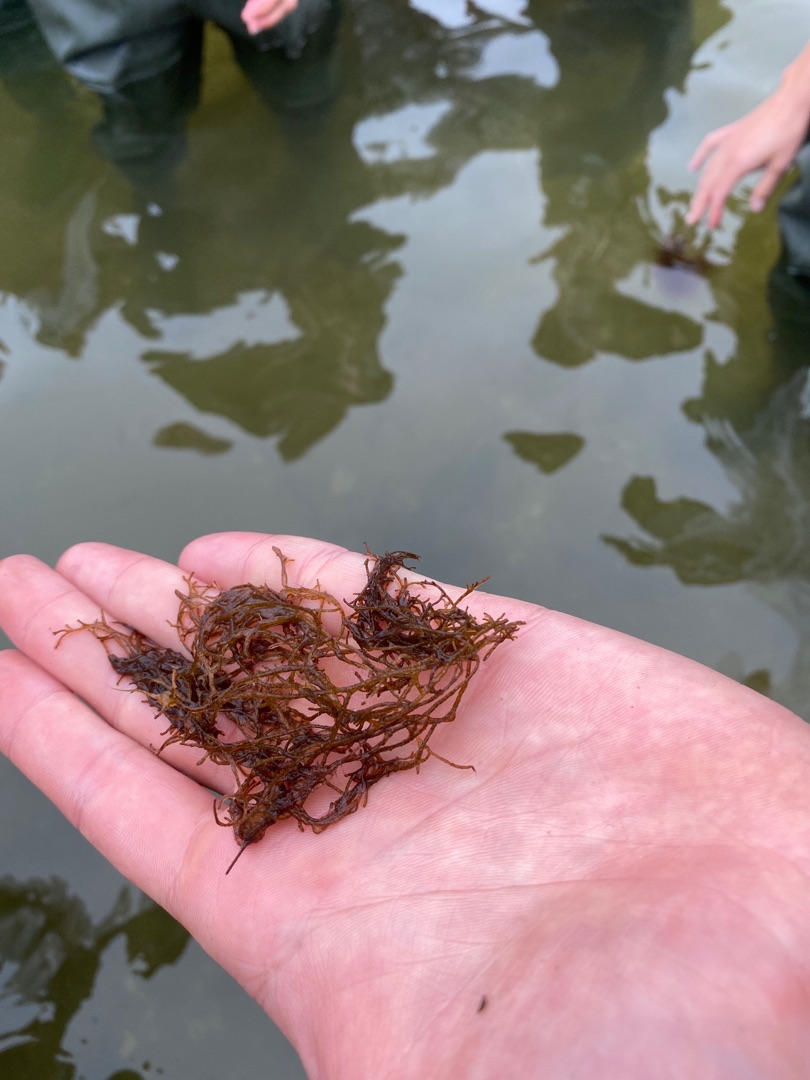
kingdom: Plantae
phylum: Rhodophyta
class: Florideophyceae
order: Gracilariales
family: Gracilariaceae
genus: Gracilaria
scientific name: Gracilaria vermiculophylla
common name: Brunlig gracilariatang
